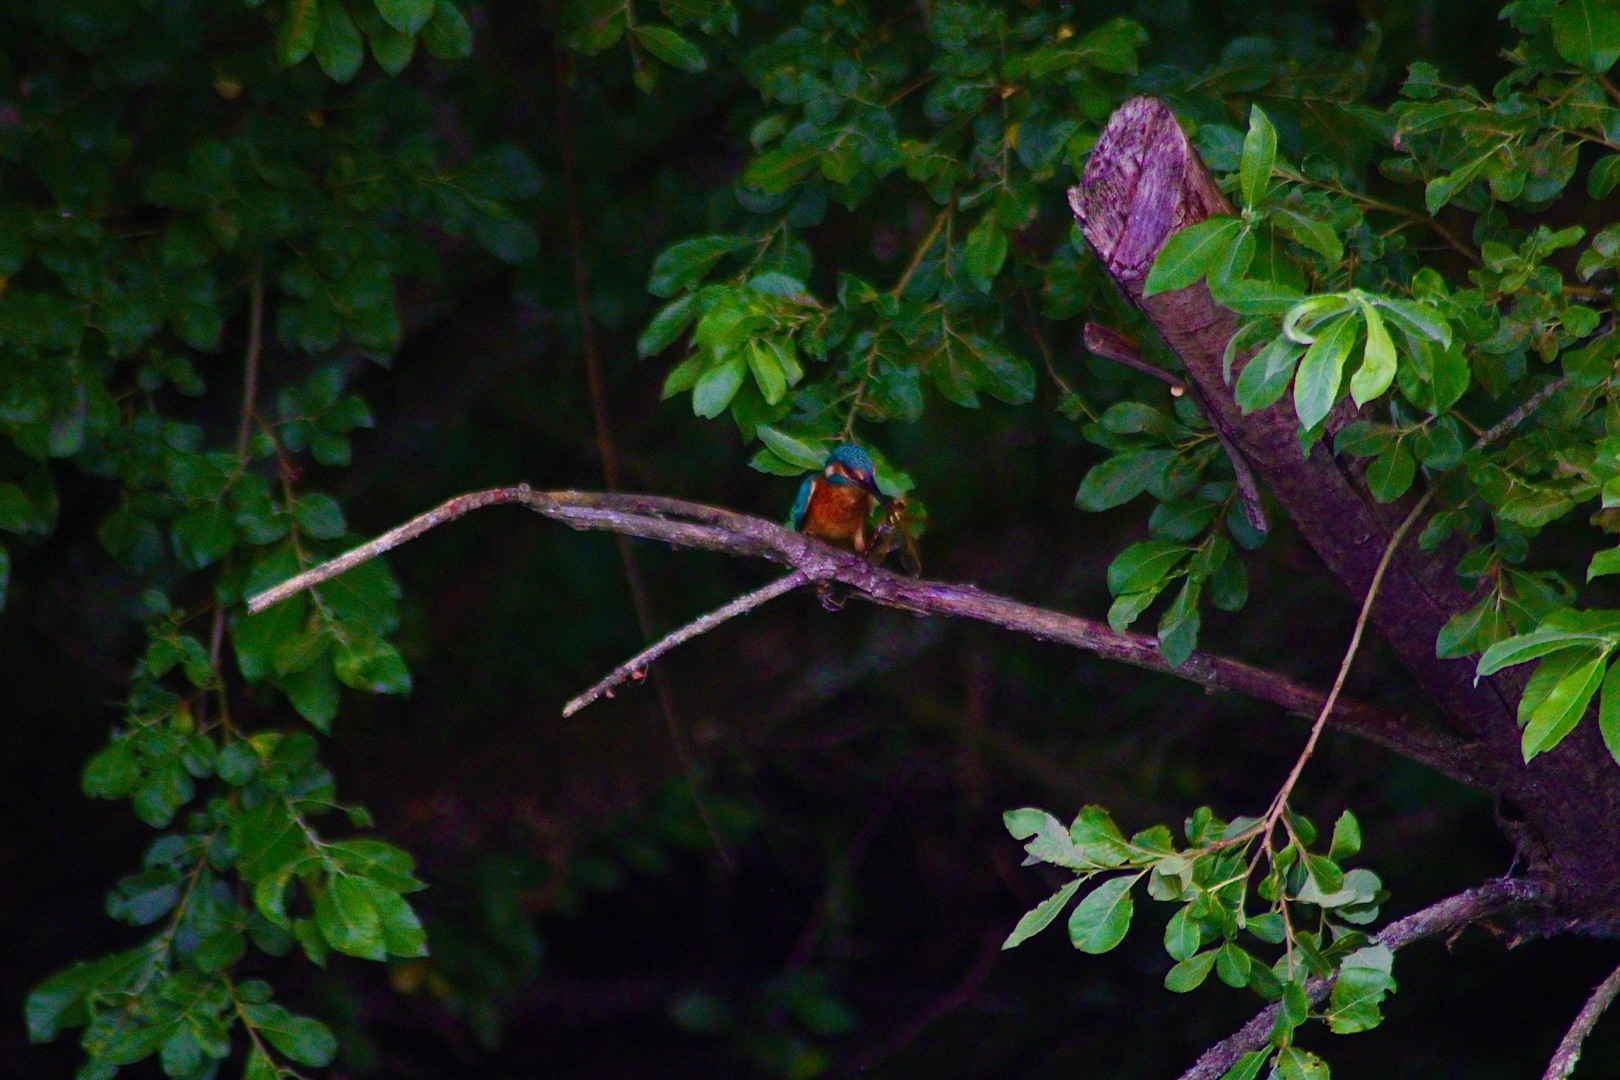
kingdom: Animalia
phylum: Chordata
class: Aves
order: Coraciiformes
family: Alcedinidae
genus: Alcedo
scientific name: Alcedo atthis
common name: Isfugl
